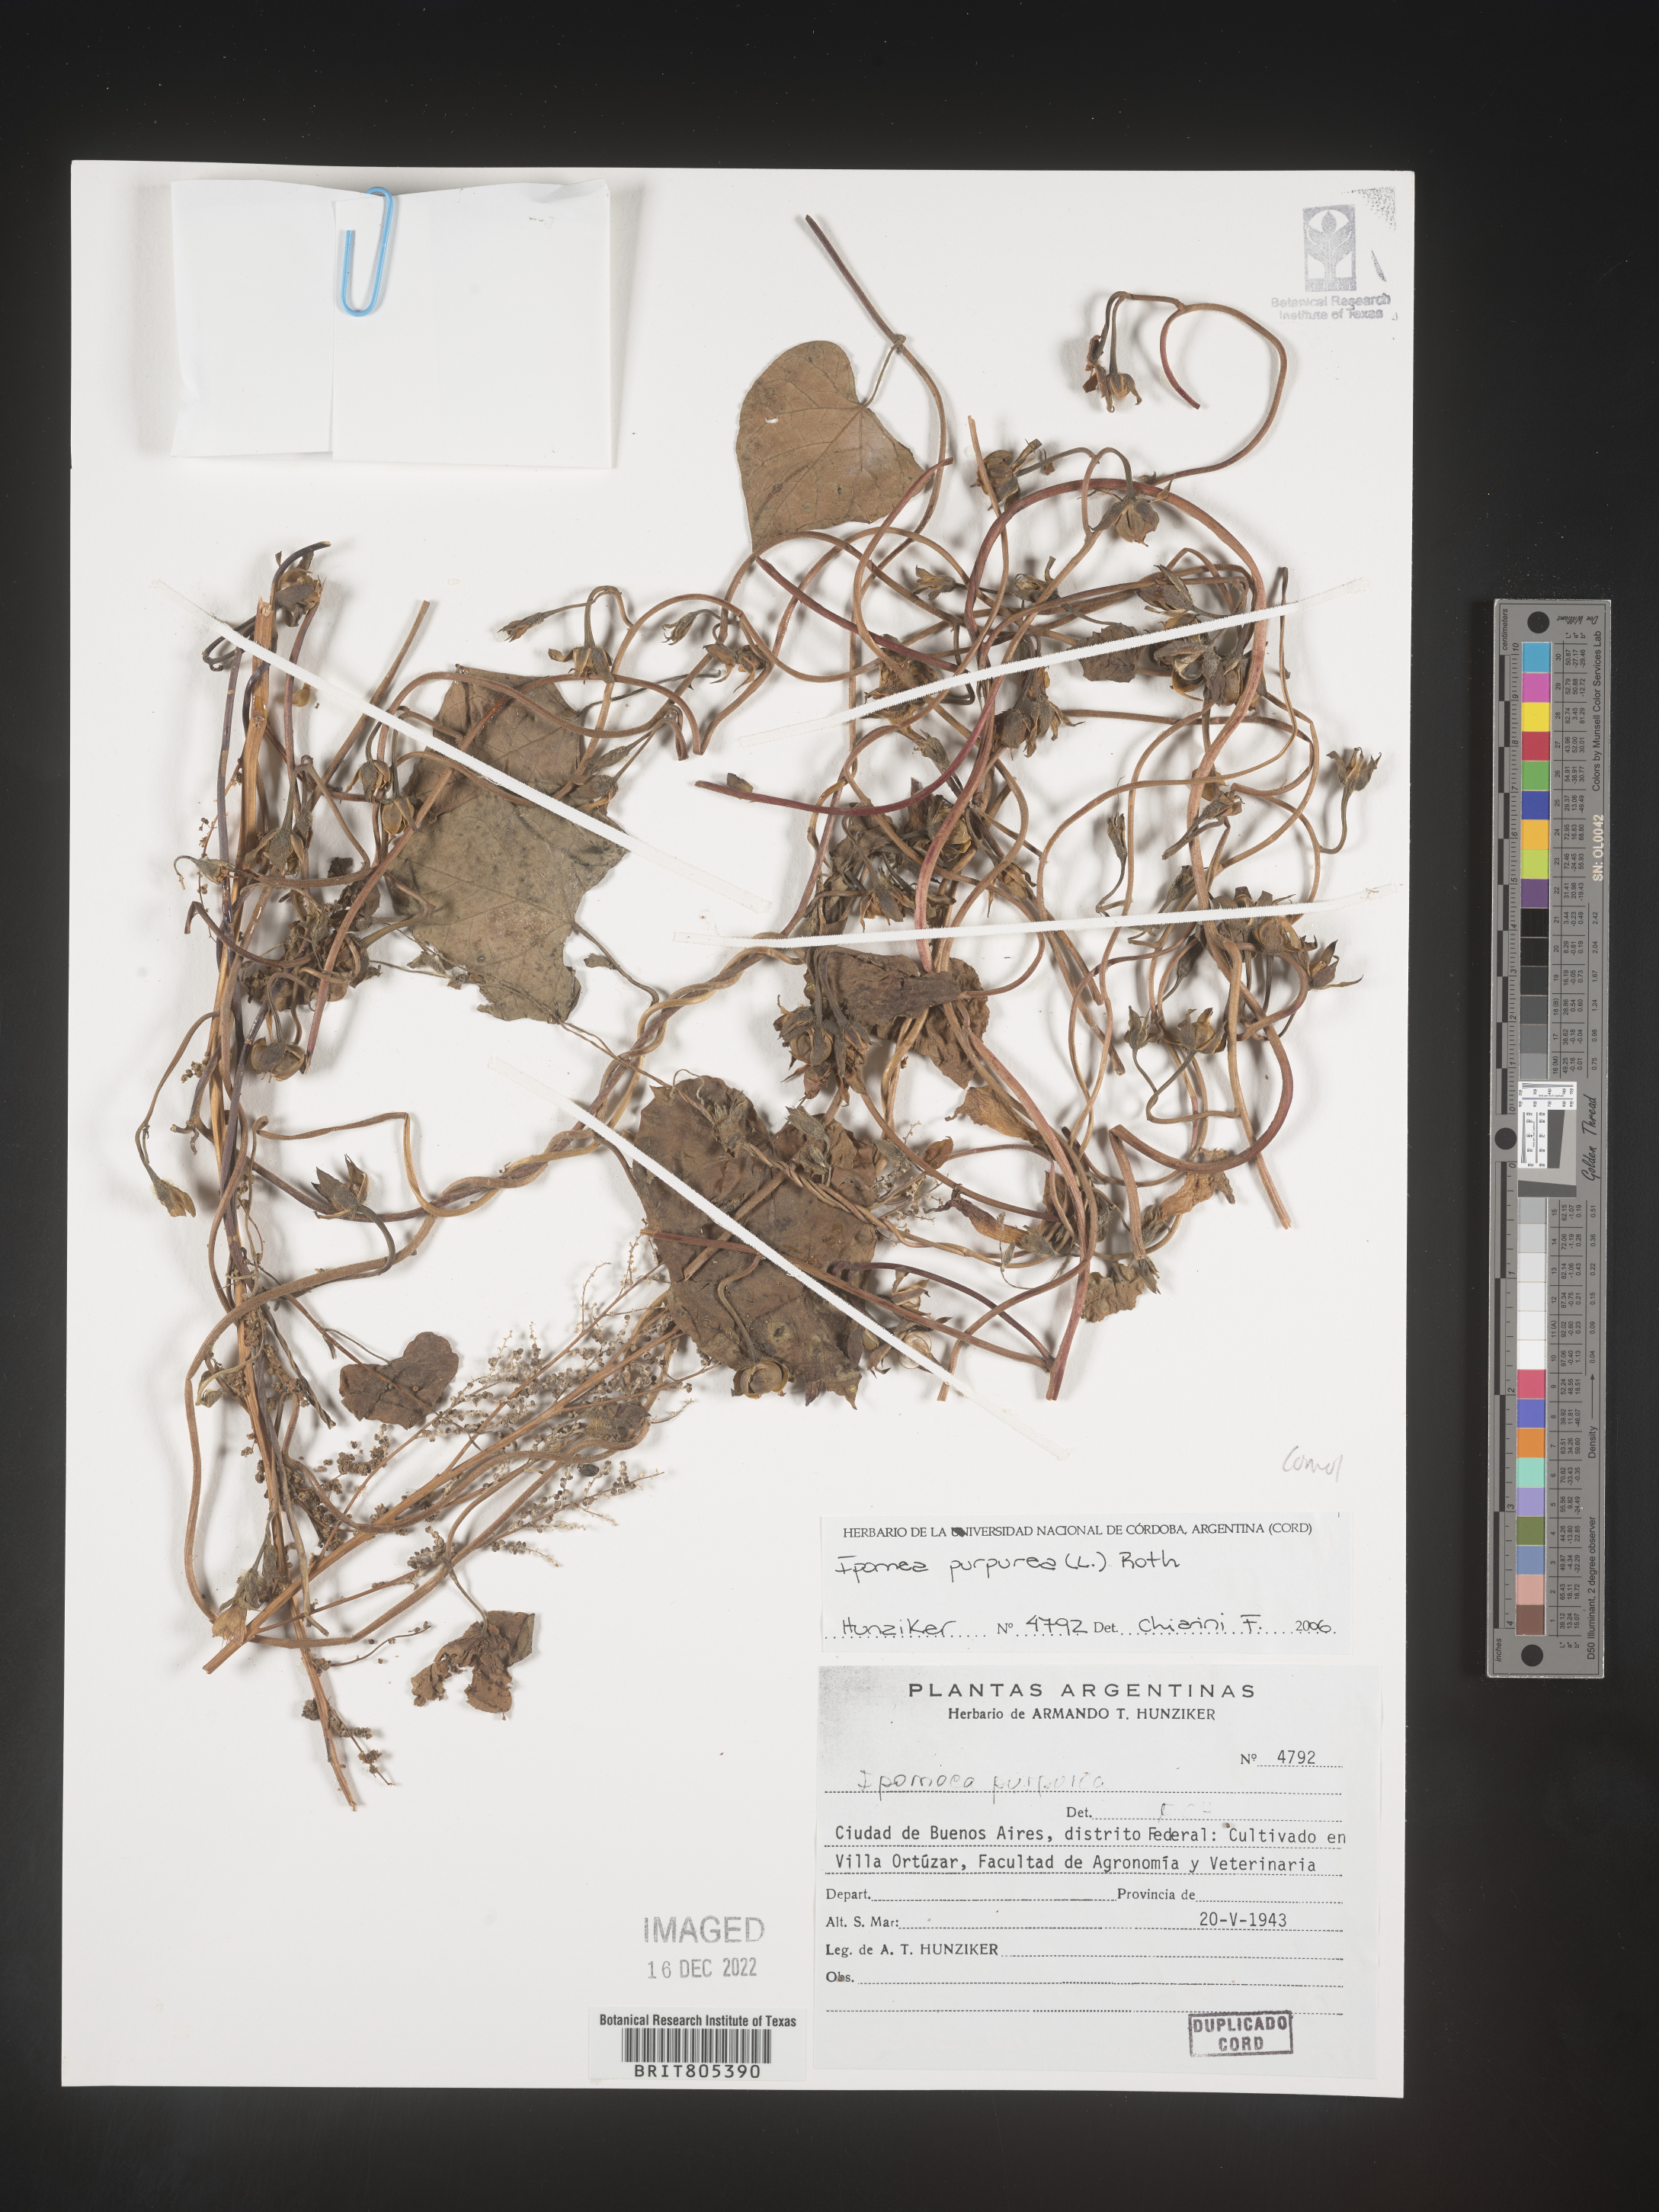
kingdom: Plantae
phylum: Tracheophyta
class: Magnoliopsida
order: Solanales
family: Convolvulaceae
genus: Ipomoea
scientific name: Ipomoea
